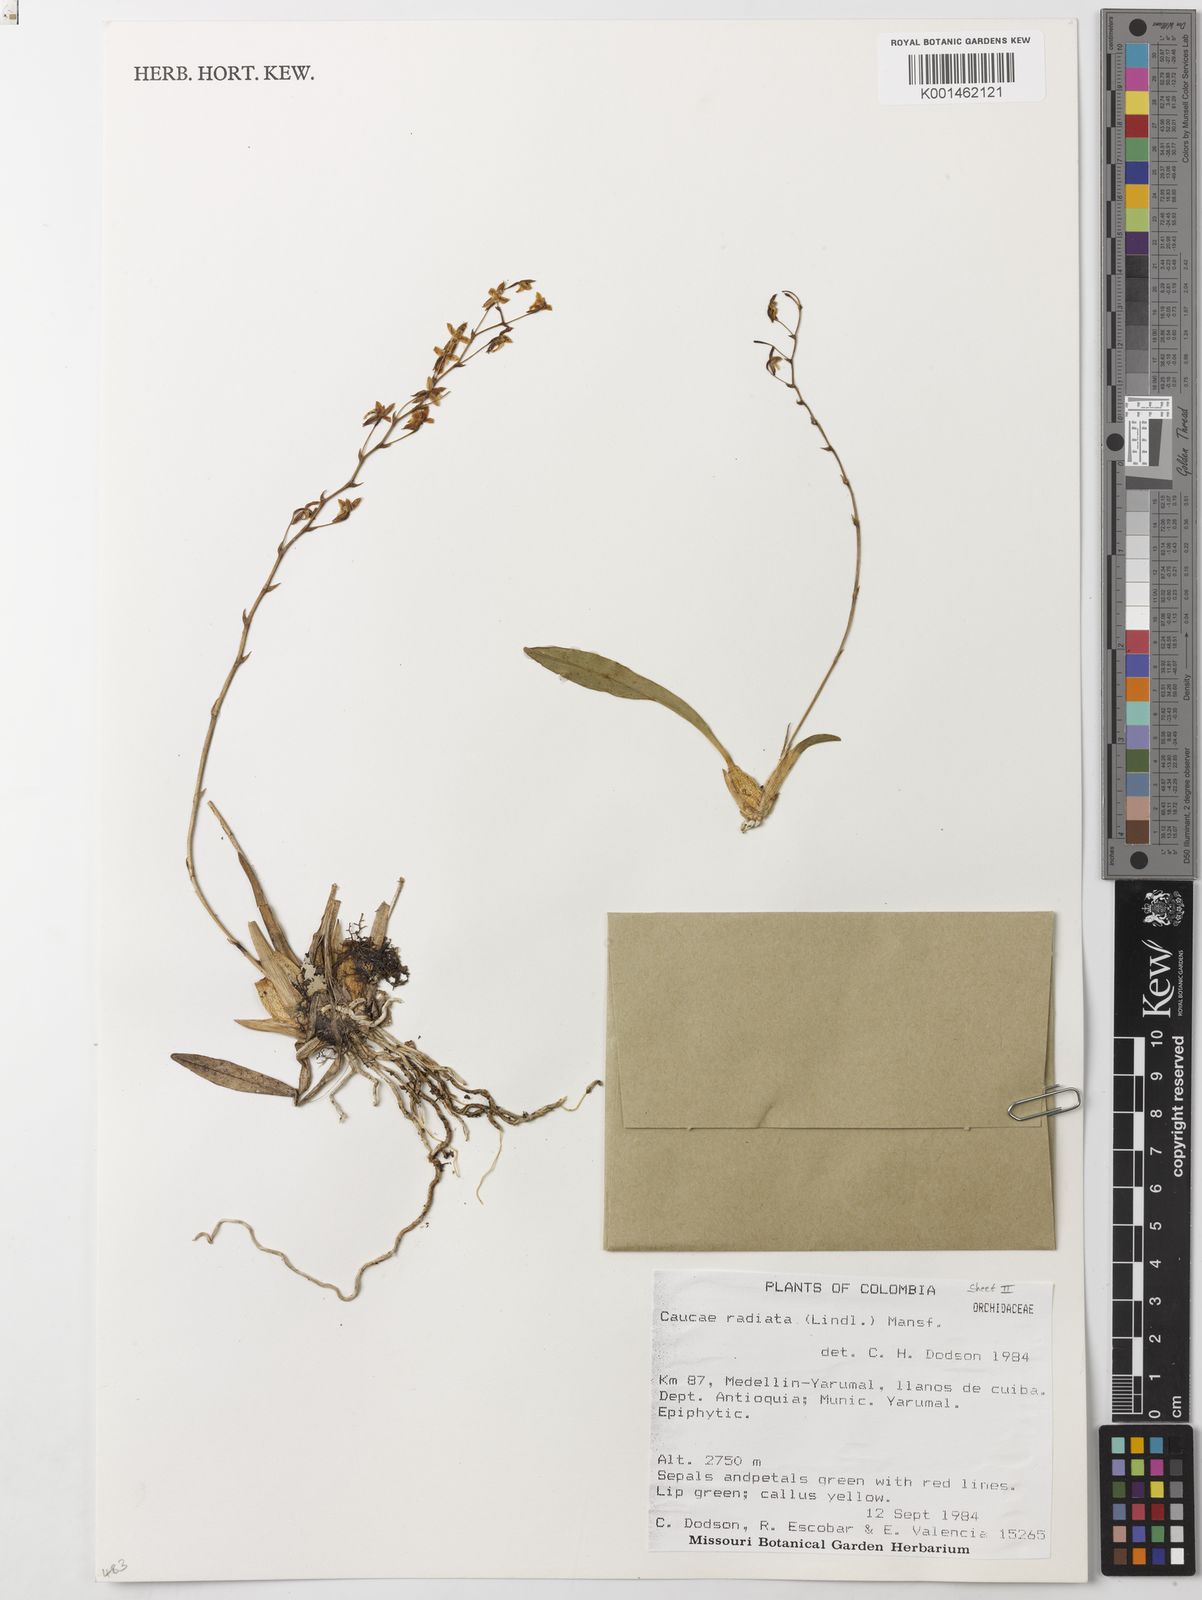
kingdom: Plantae
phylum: Tracheophyta
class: Liliopsida
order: Asparagales
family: Orchidaceae
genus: Caucaea
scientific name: Caucaea radiata
